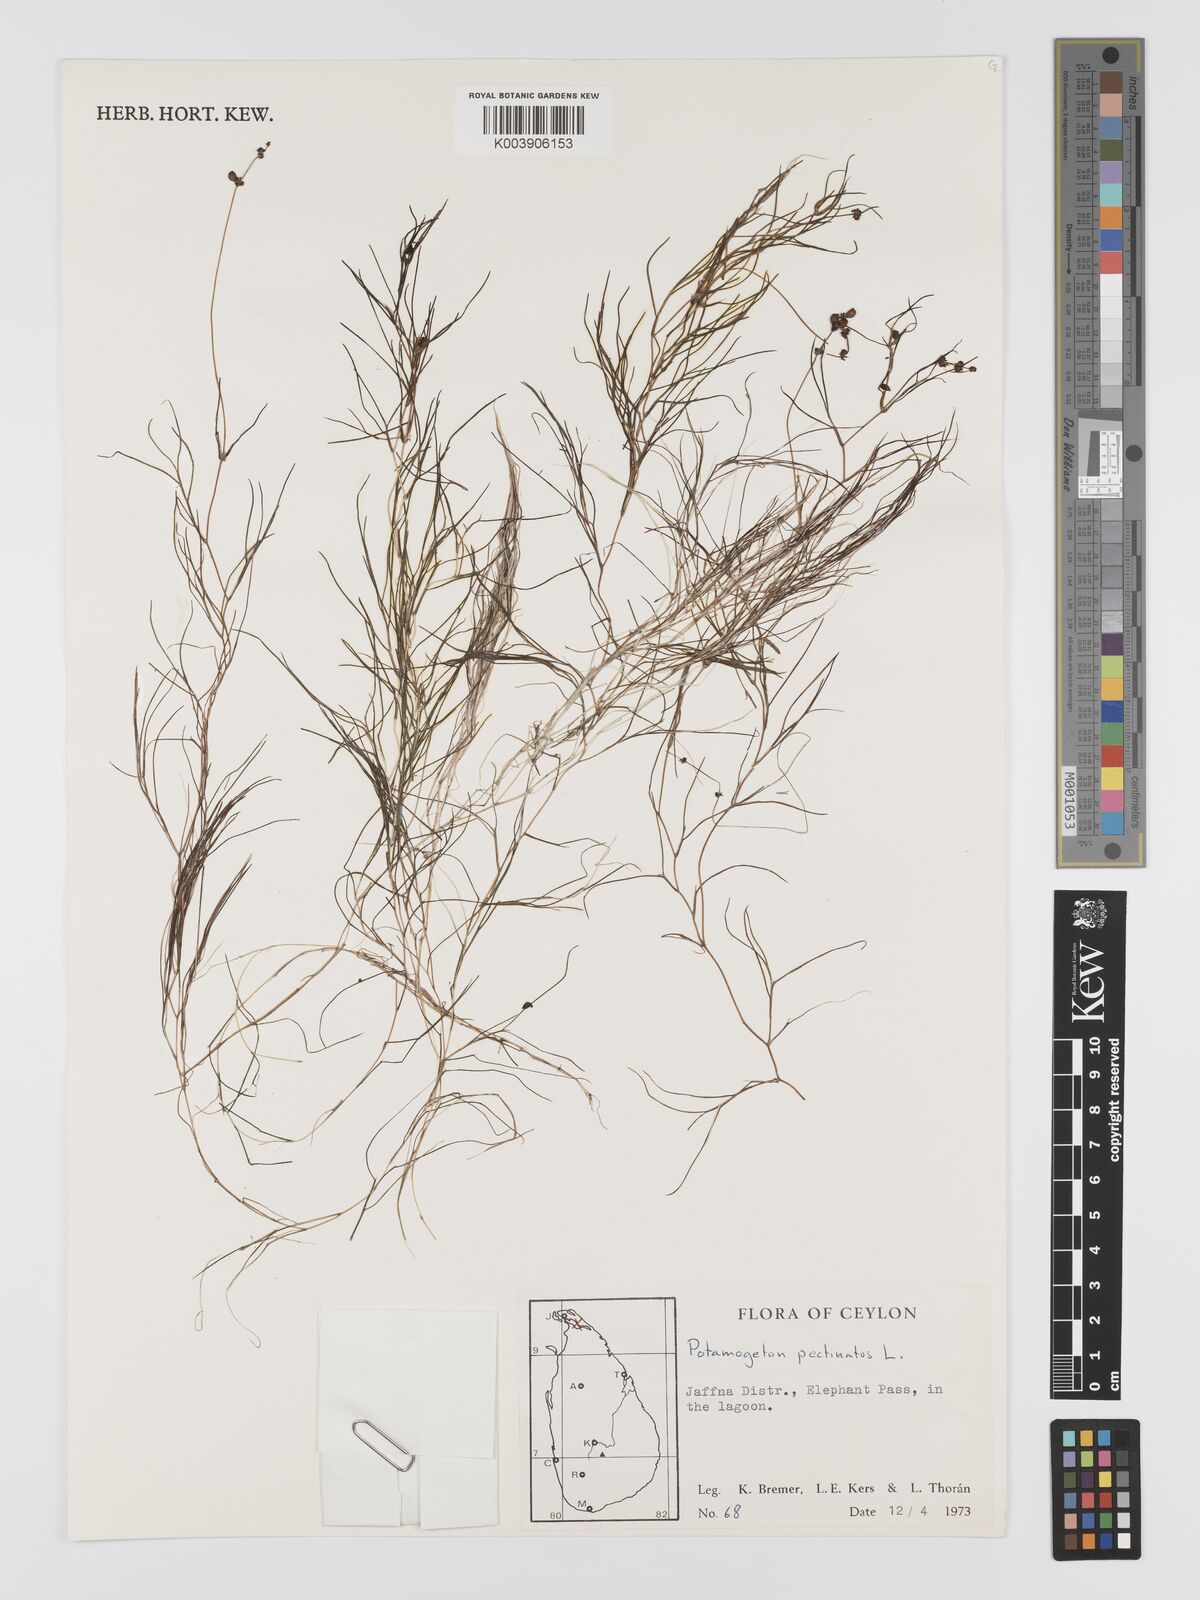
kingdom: Plantae
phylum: Tracheophyta
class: Liliopsida
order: Alismatales
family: Potamogetonaceae
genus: Stuckenia
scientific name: Stuckenia pectinata
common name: Sago pondweed
